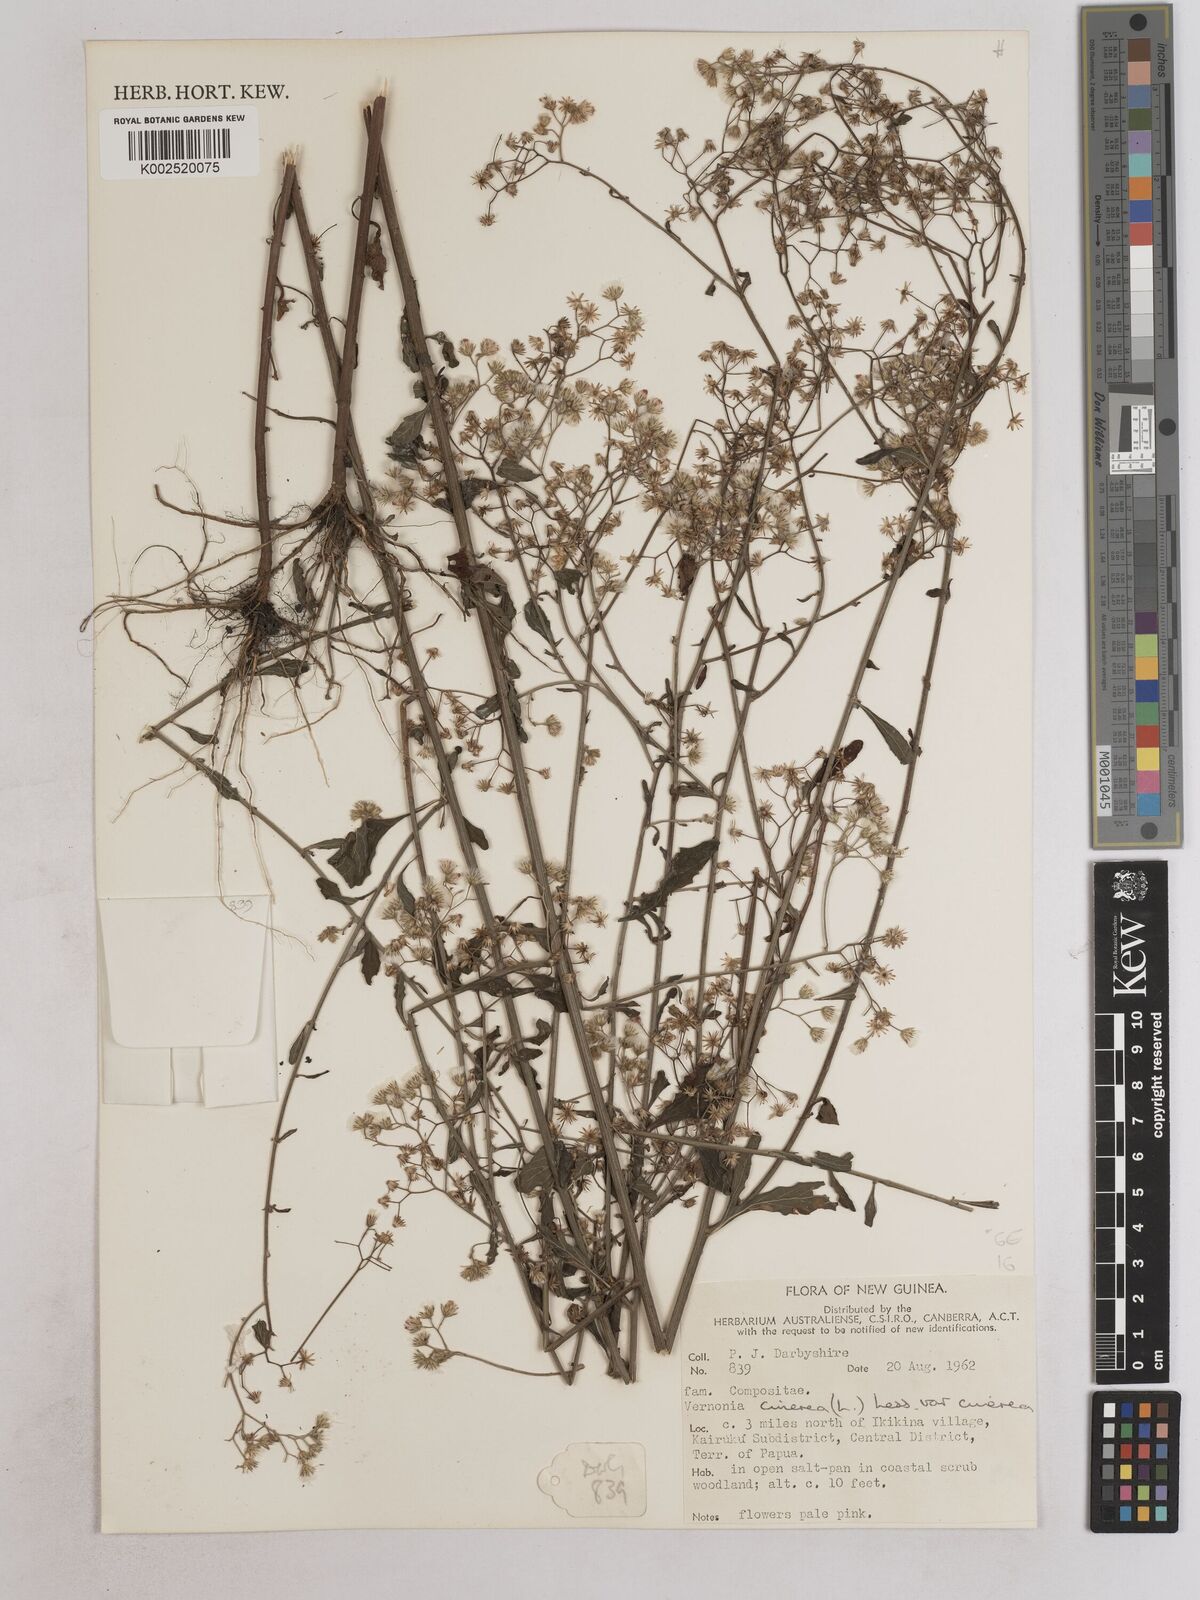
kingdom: Plantae
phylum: Tracheophyta
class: Magnoliopsida
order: Asterales
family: Asteraceae
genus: Cyanthillium
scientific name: Cyanthillium cinereum
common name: Little ironweed
